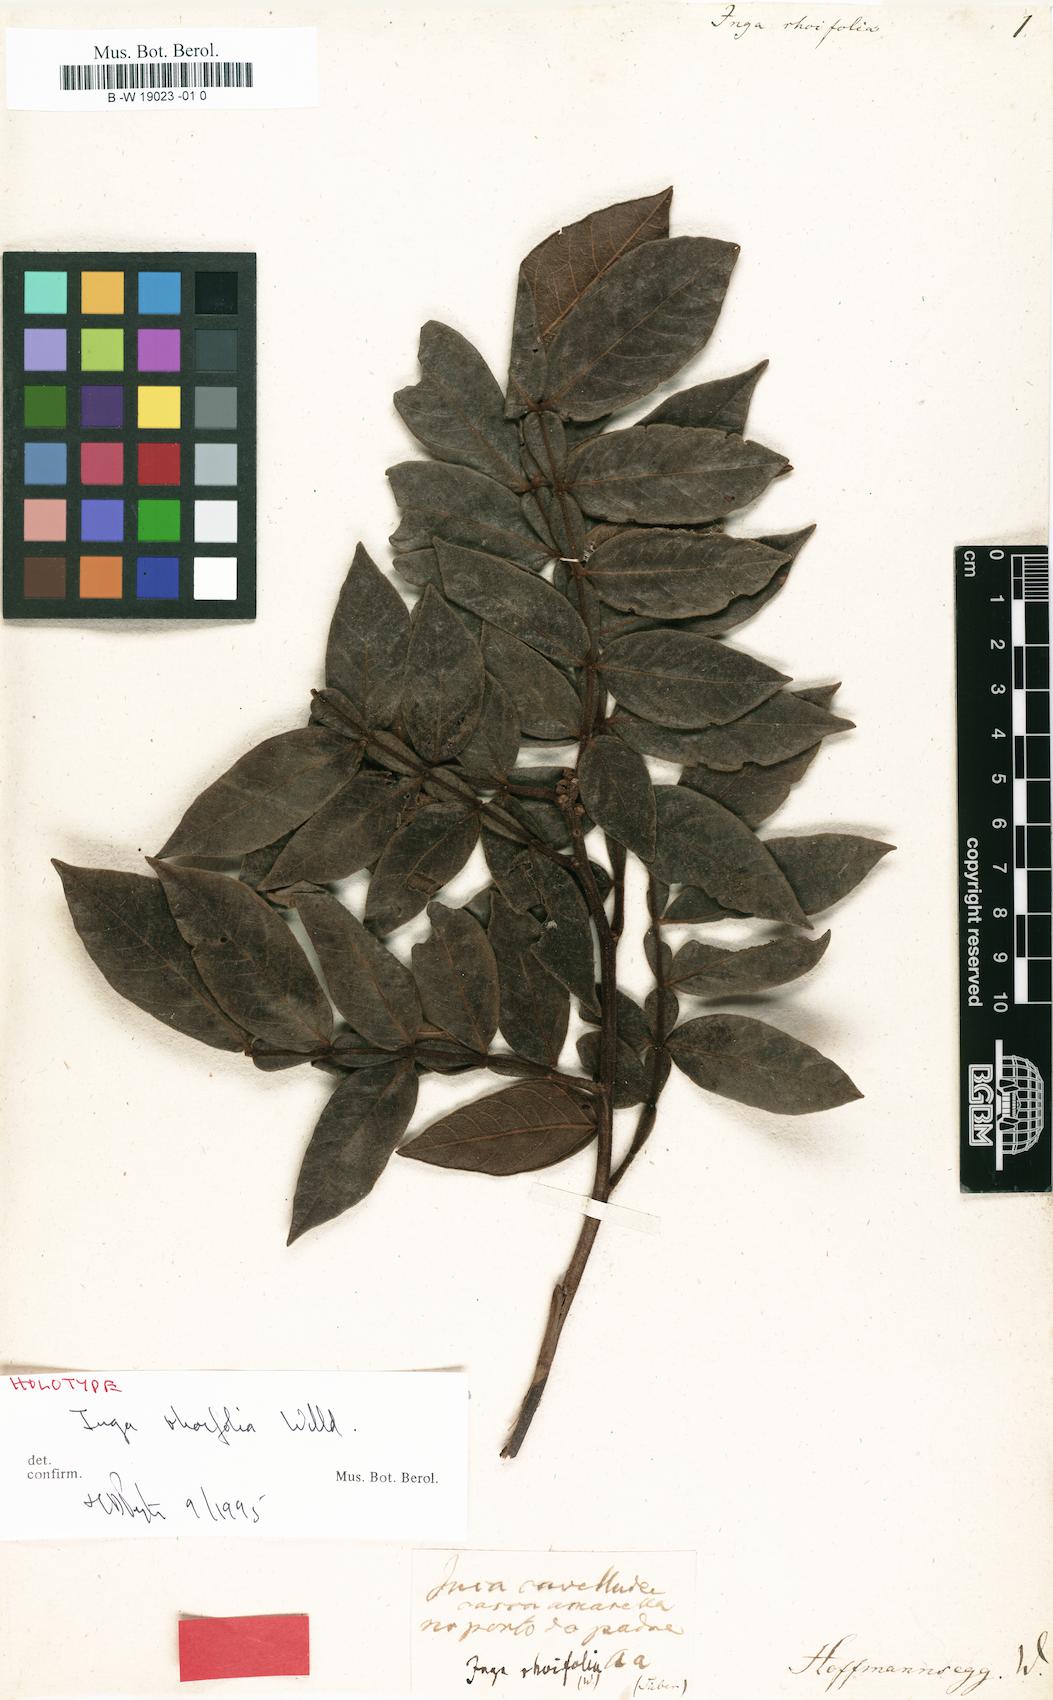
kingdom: Plantae
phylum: Tracheophyta
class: Magnoliopsida
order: Fabales
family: Fabaceae
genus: Inga
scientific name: Inga
